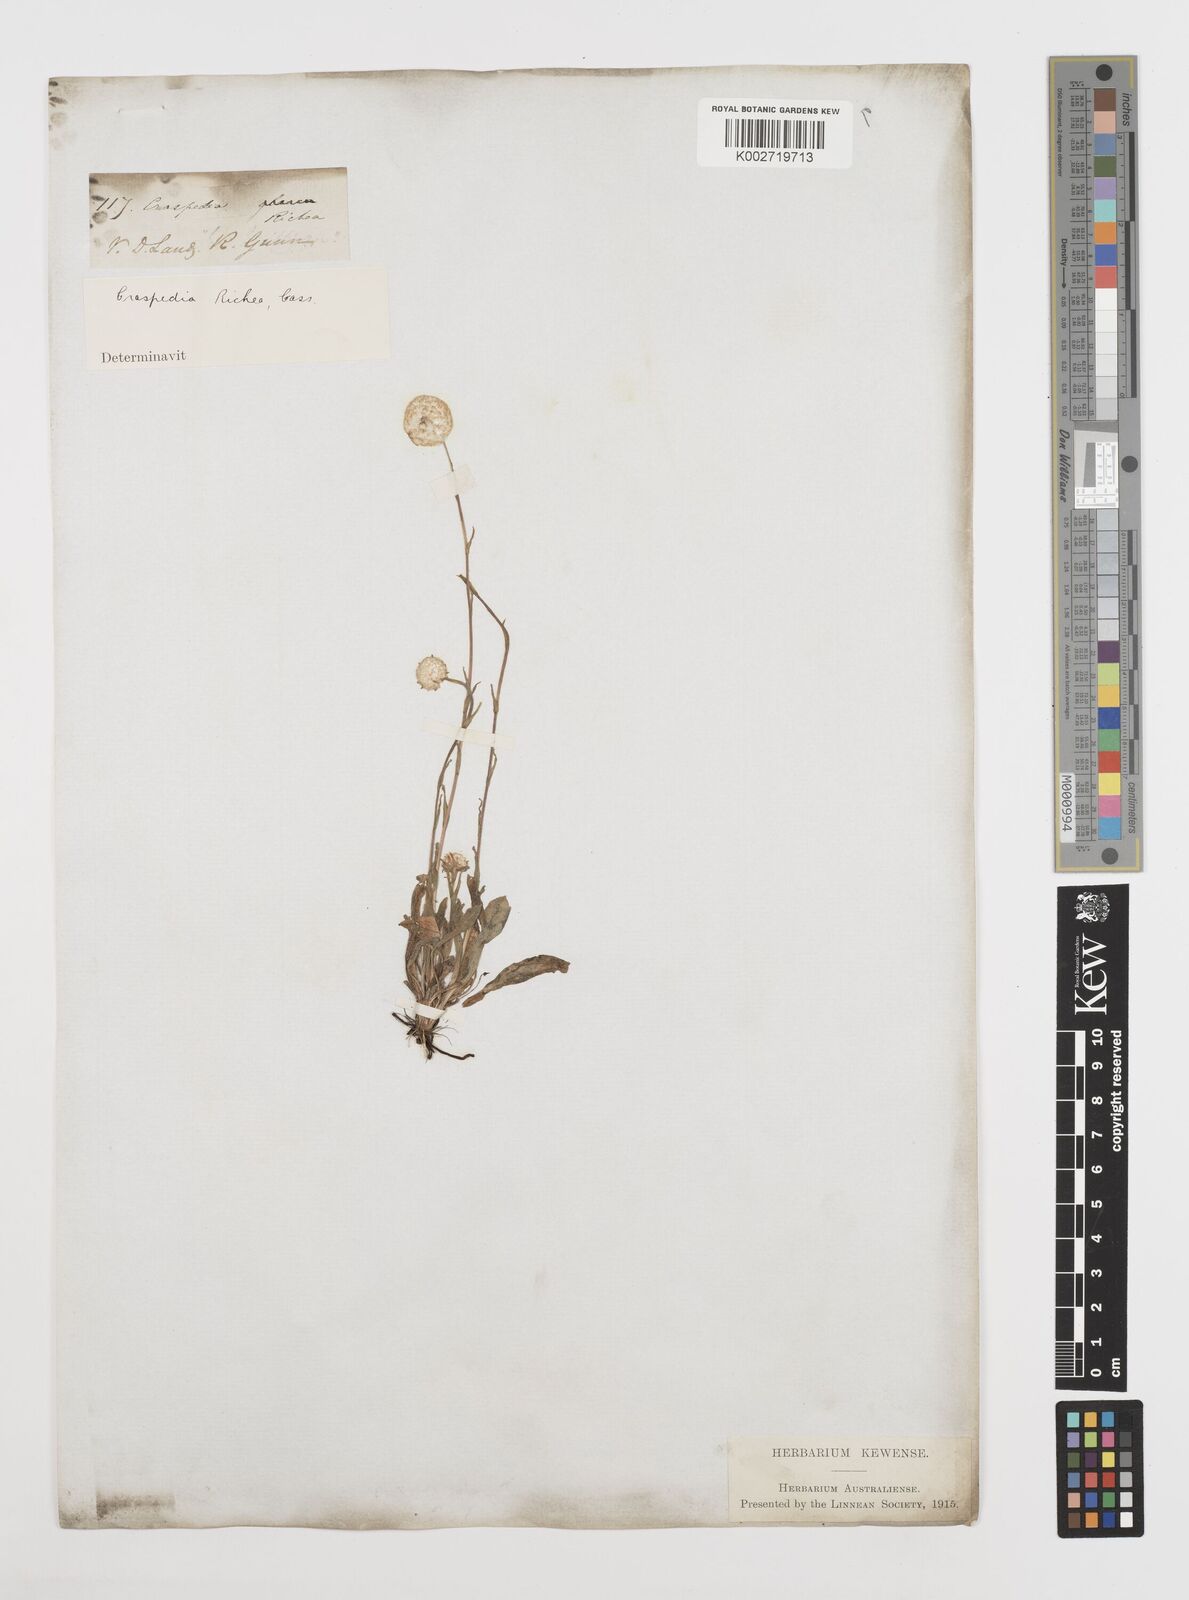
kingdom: Plantae
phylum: Tracheophyta
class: Magnoliopsida
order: Asterales
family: Asteraceae
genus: Craspedia
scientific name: Craspedia glauca
